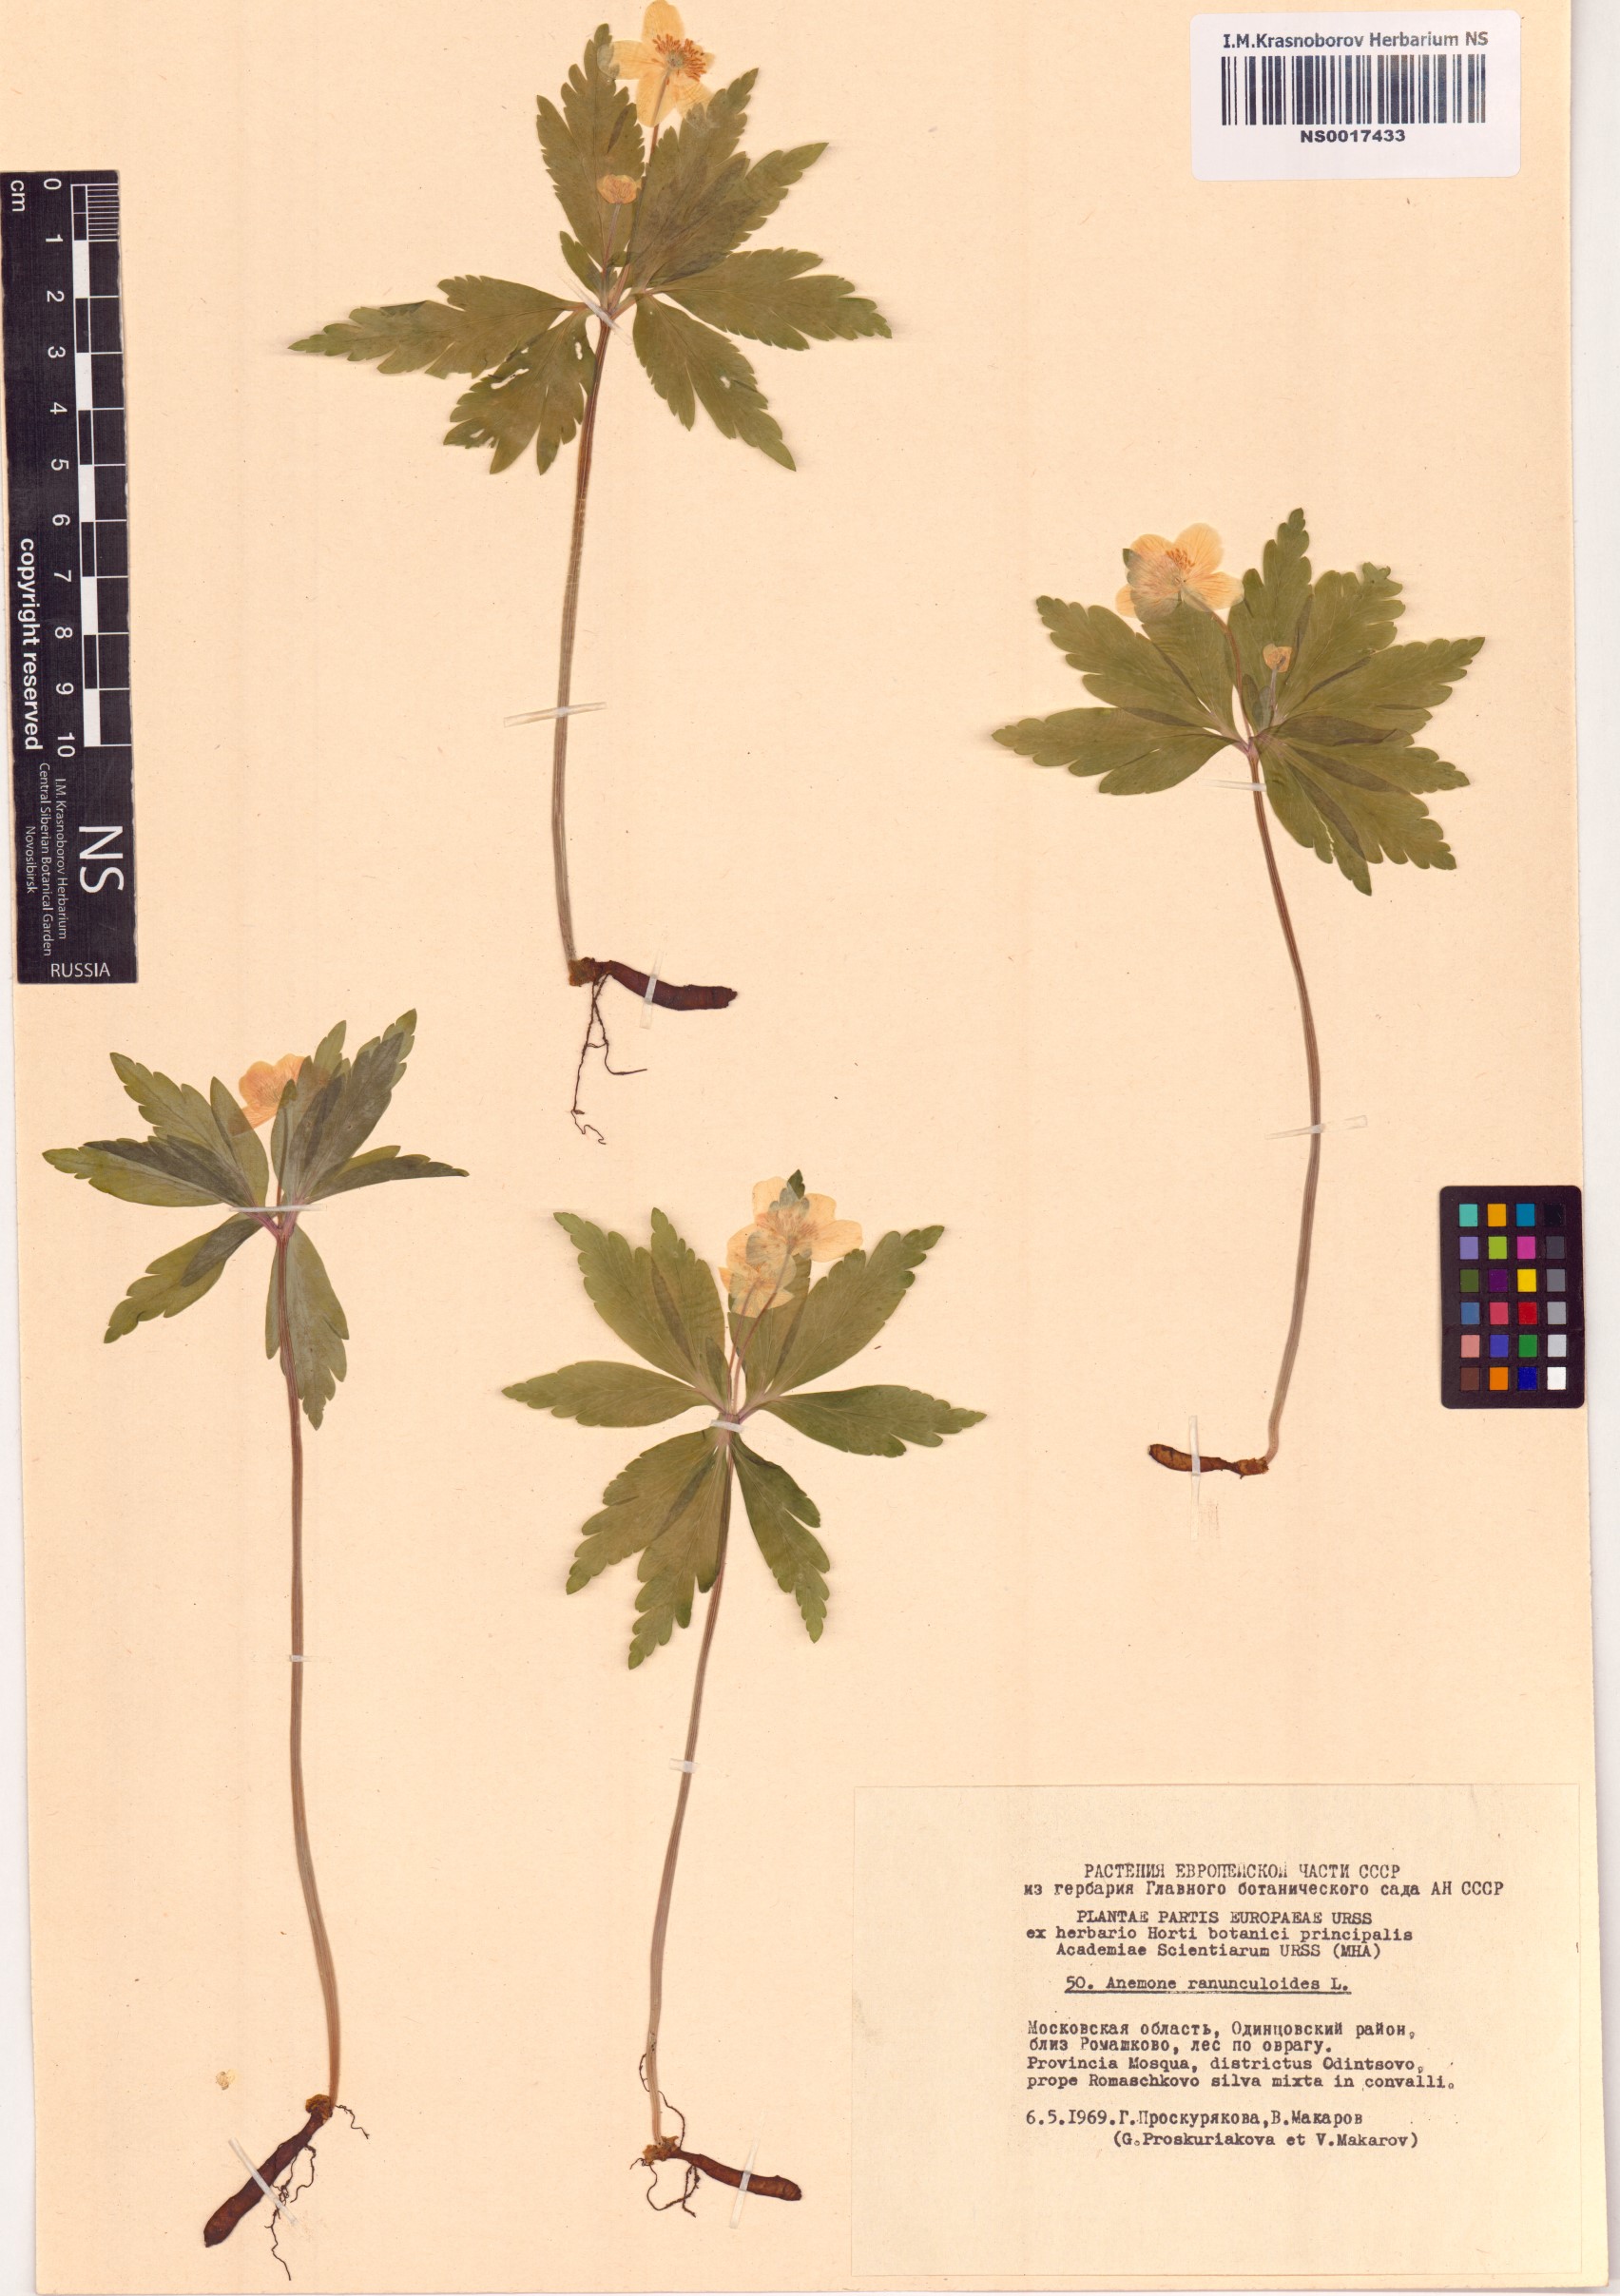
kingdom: Plantae
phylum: Tracheophyta
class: Magnoliopsida
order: Ranunculales
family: Ranunculaceae
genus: Anemone
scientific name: Anemone ranunculoides
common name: Yellow anemone
